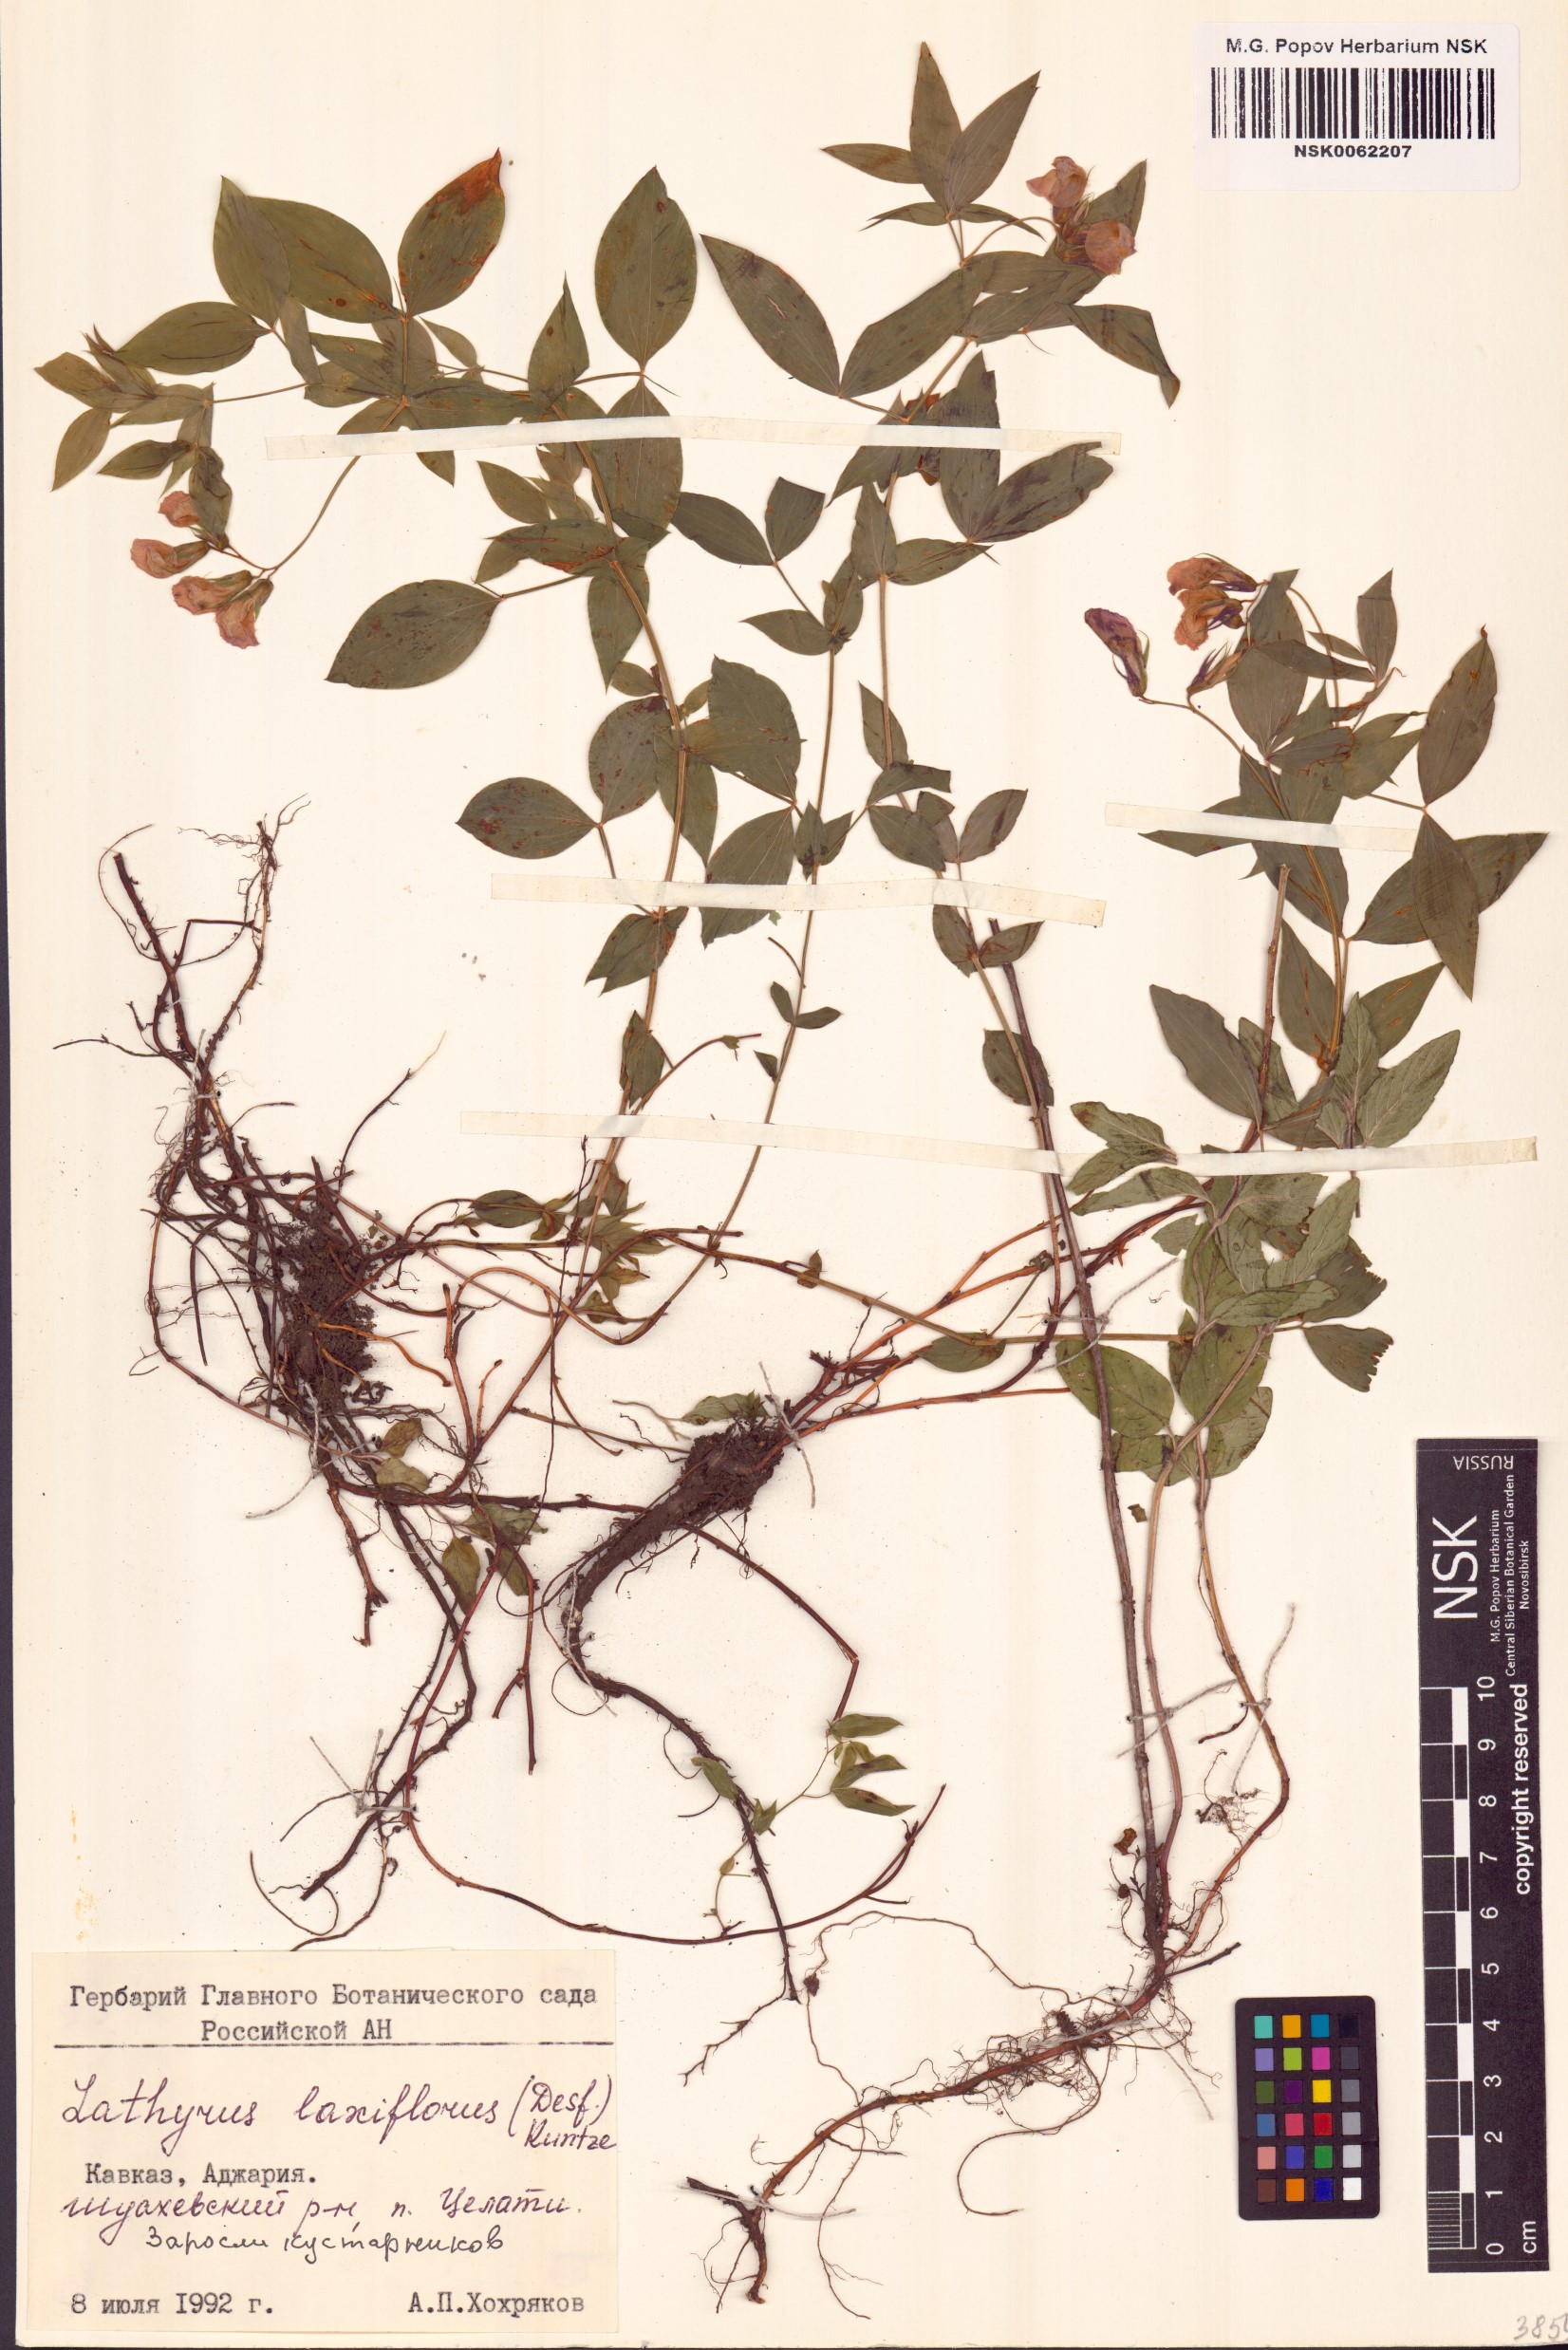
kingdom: Plantae
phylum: Tracheophyta
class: Magnoliopsida
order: Fabales
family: Fabaceae
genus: Lathyrus
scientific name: Lathyrus laxiflorus
